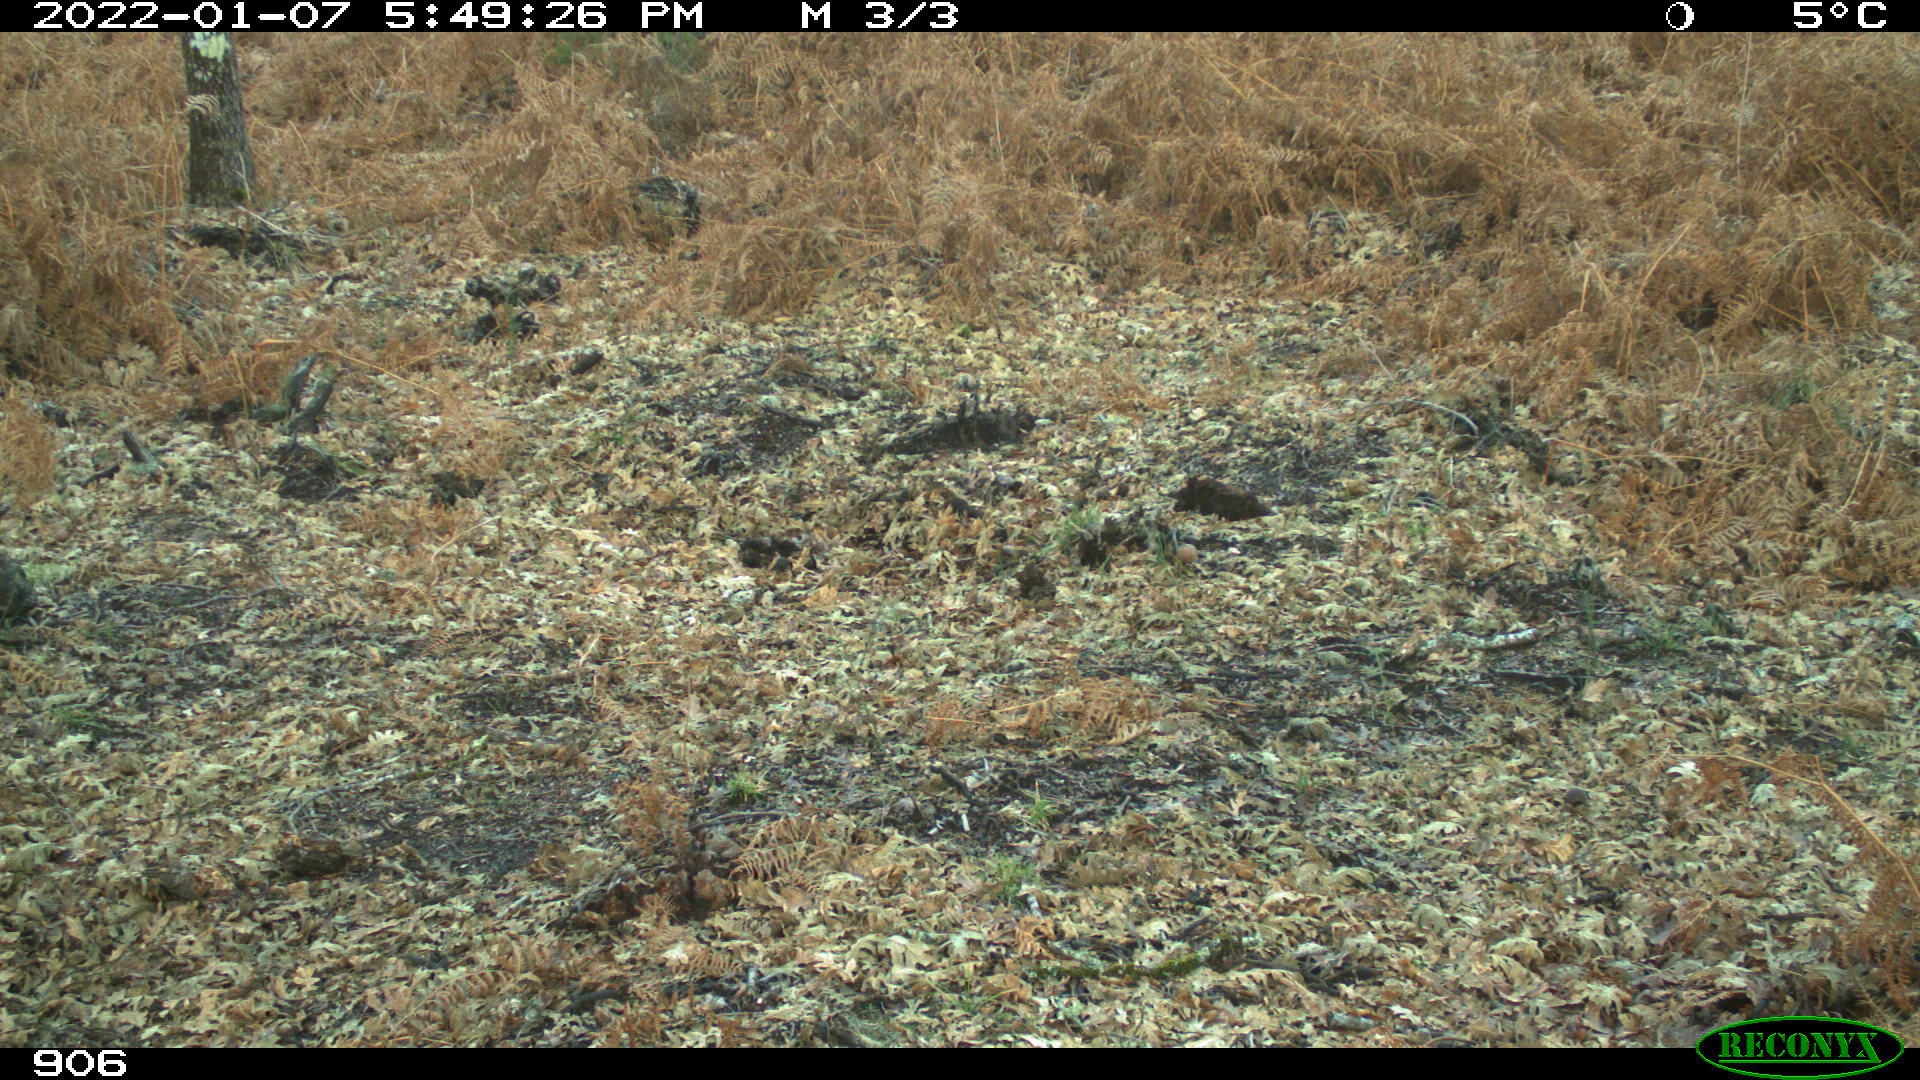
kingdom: Animalia
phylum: Chordata
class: Mammalia
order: Artiodactyla
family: Suidae
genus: Sus
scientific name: Sus scrofa
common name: Wild boar
